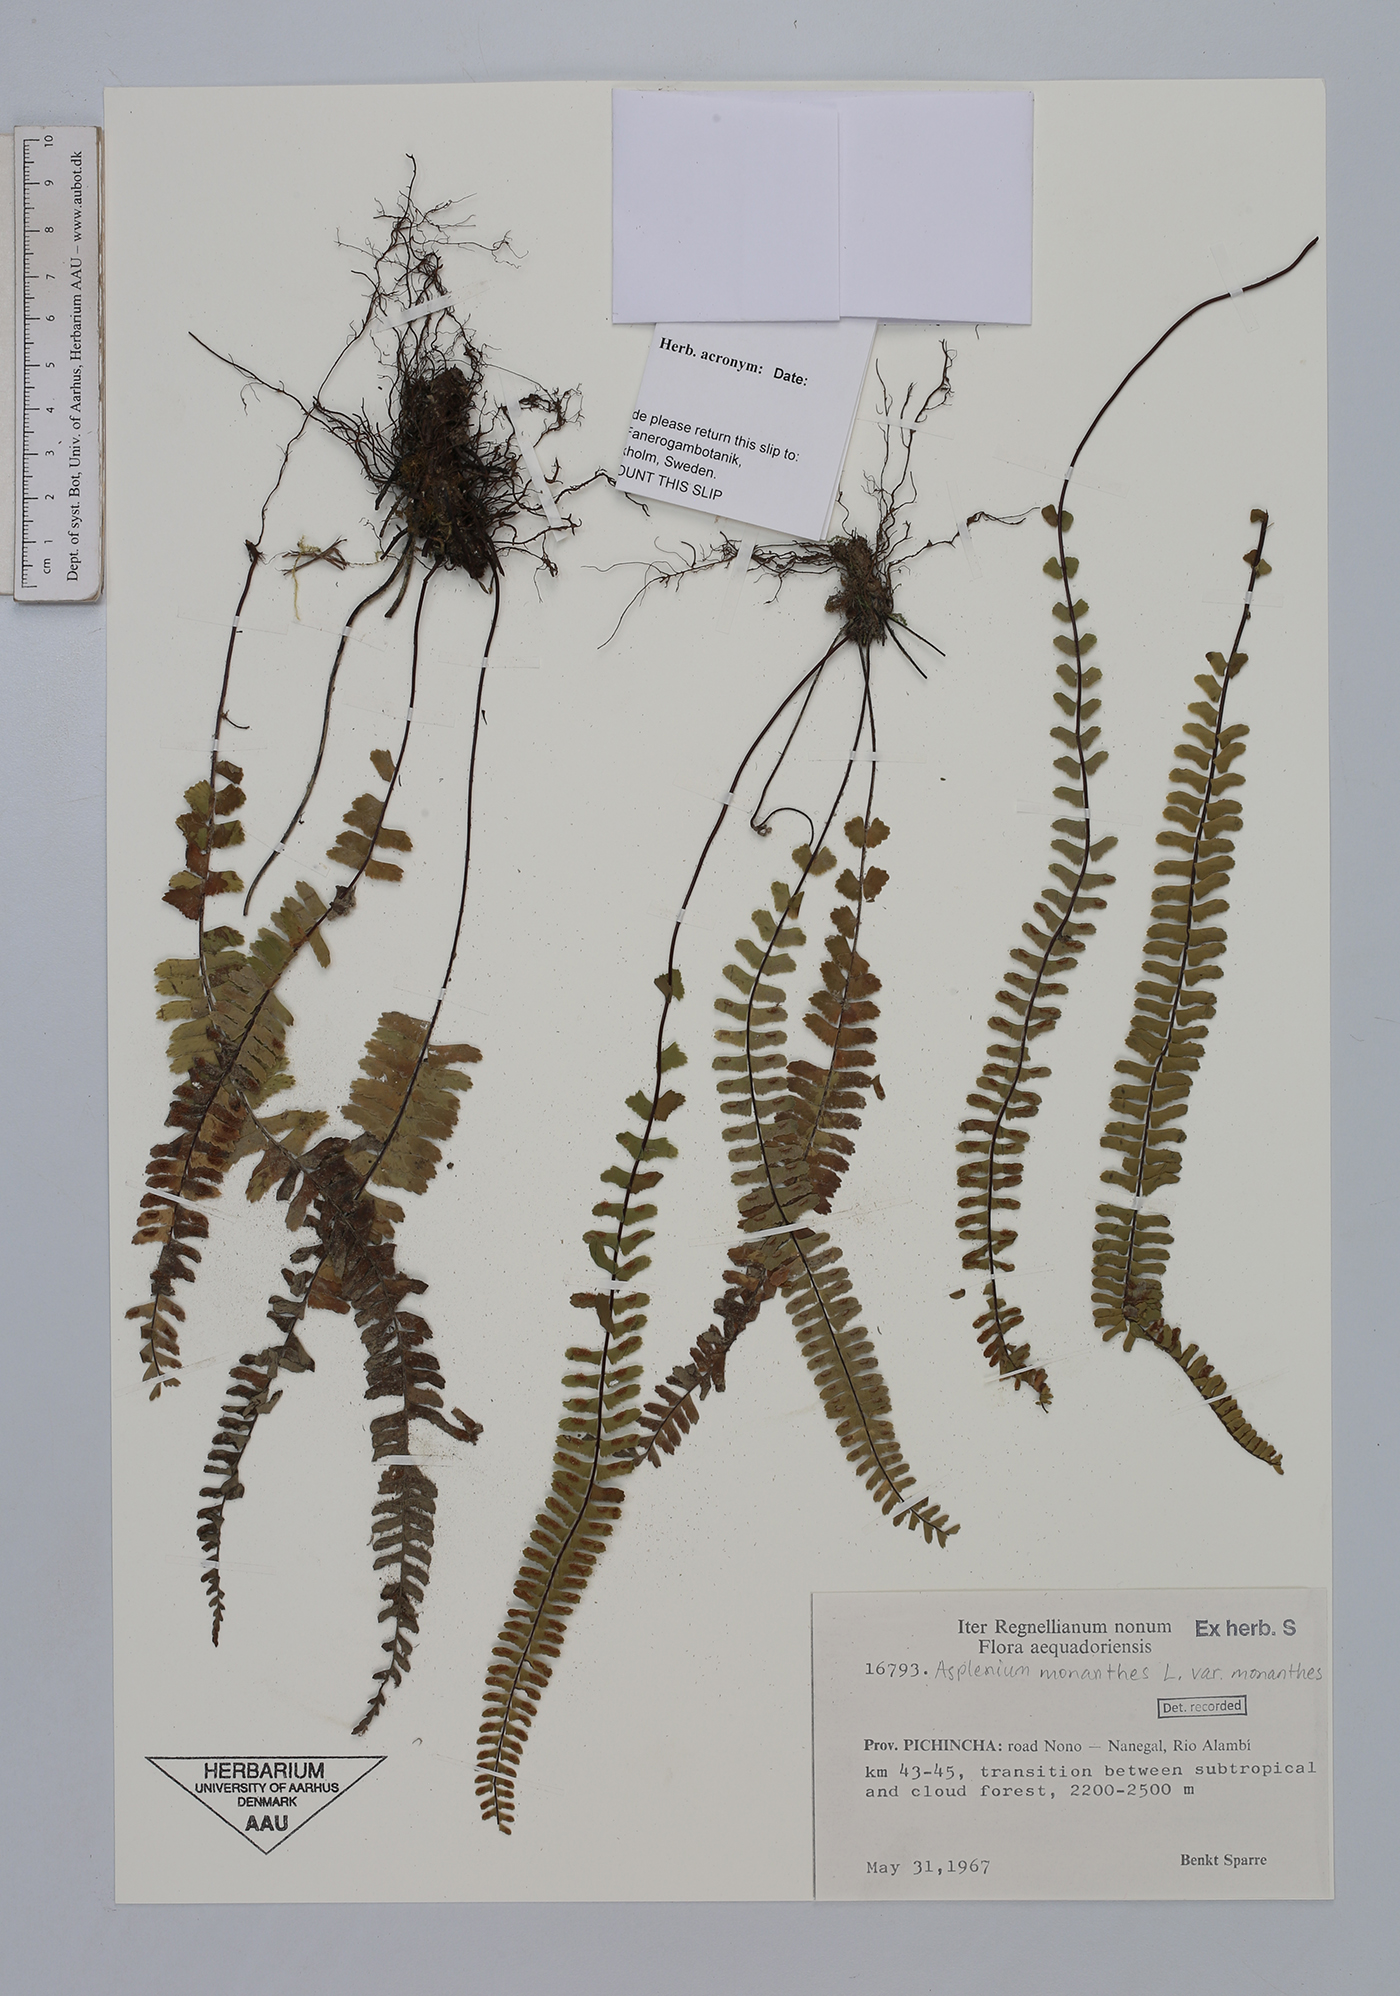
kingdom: Plantae
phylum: Tracheophyta
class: Polypodiopsida
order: Polypodiales
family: Aspleniaceae
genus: Asplenium
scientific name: Asplenium monanthes
